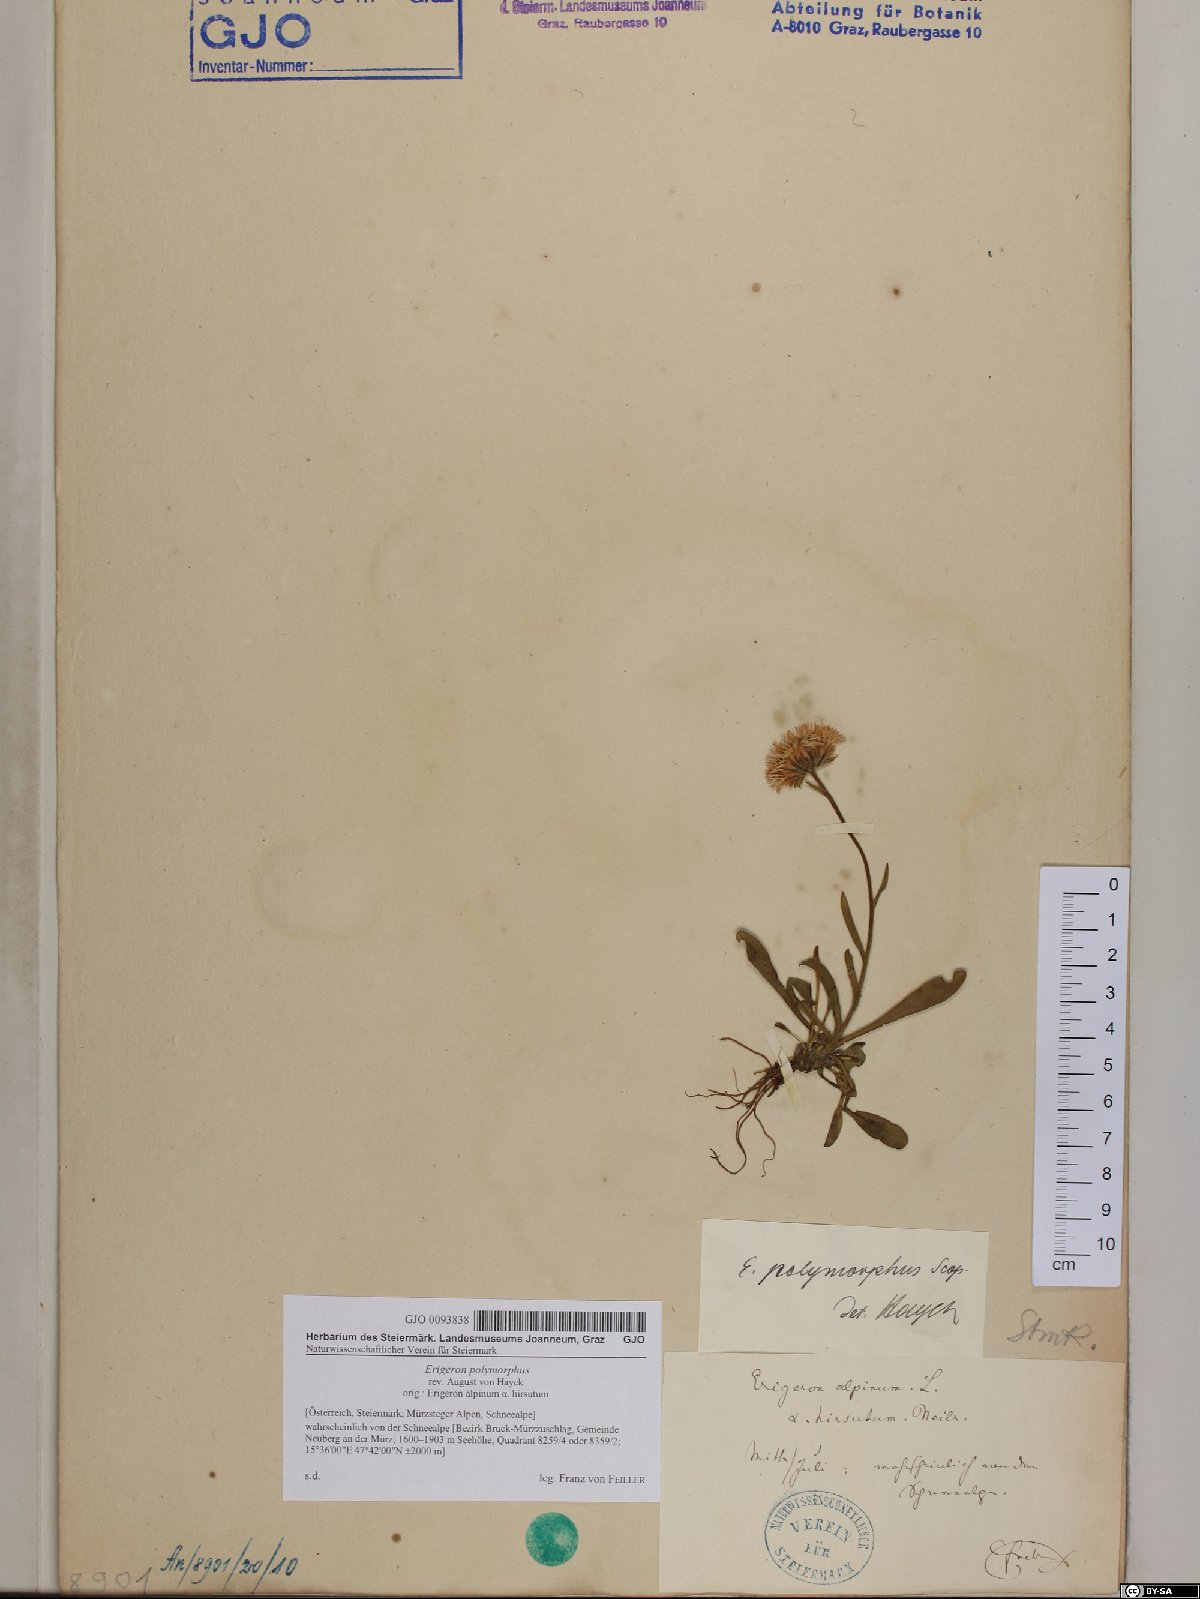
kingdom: Plantae
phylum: Tracheophyta
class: Magnoliopsida
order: Asterales
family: Asteraceae
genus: Erigeron
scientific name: Erigeron alpinus
